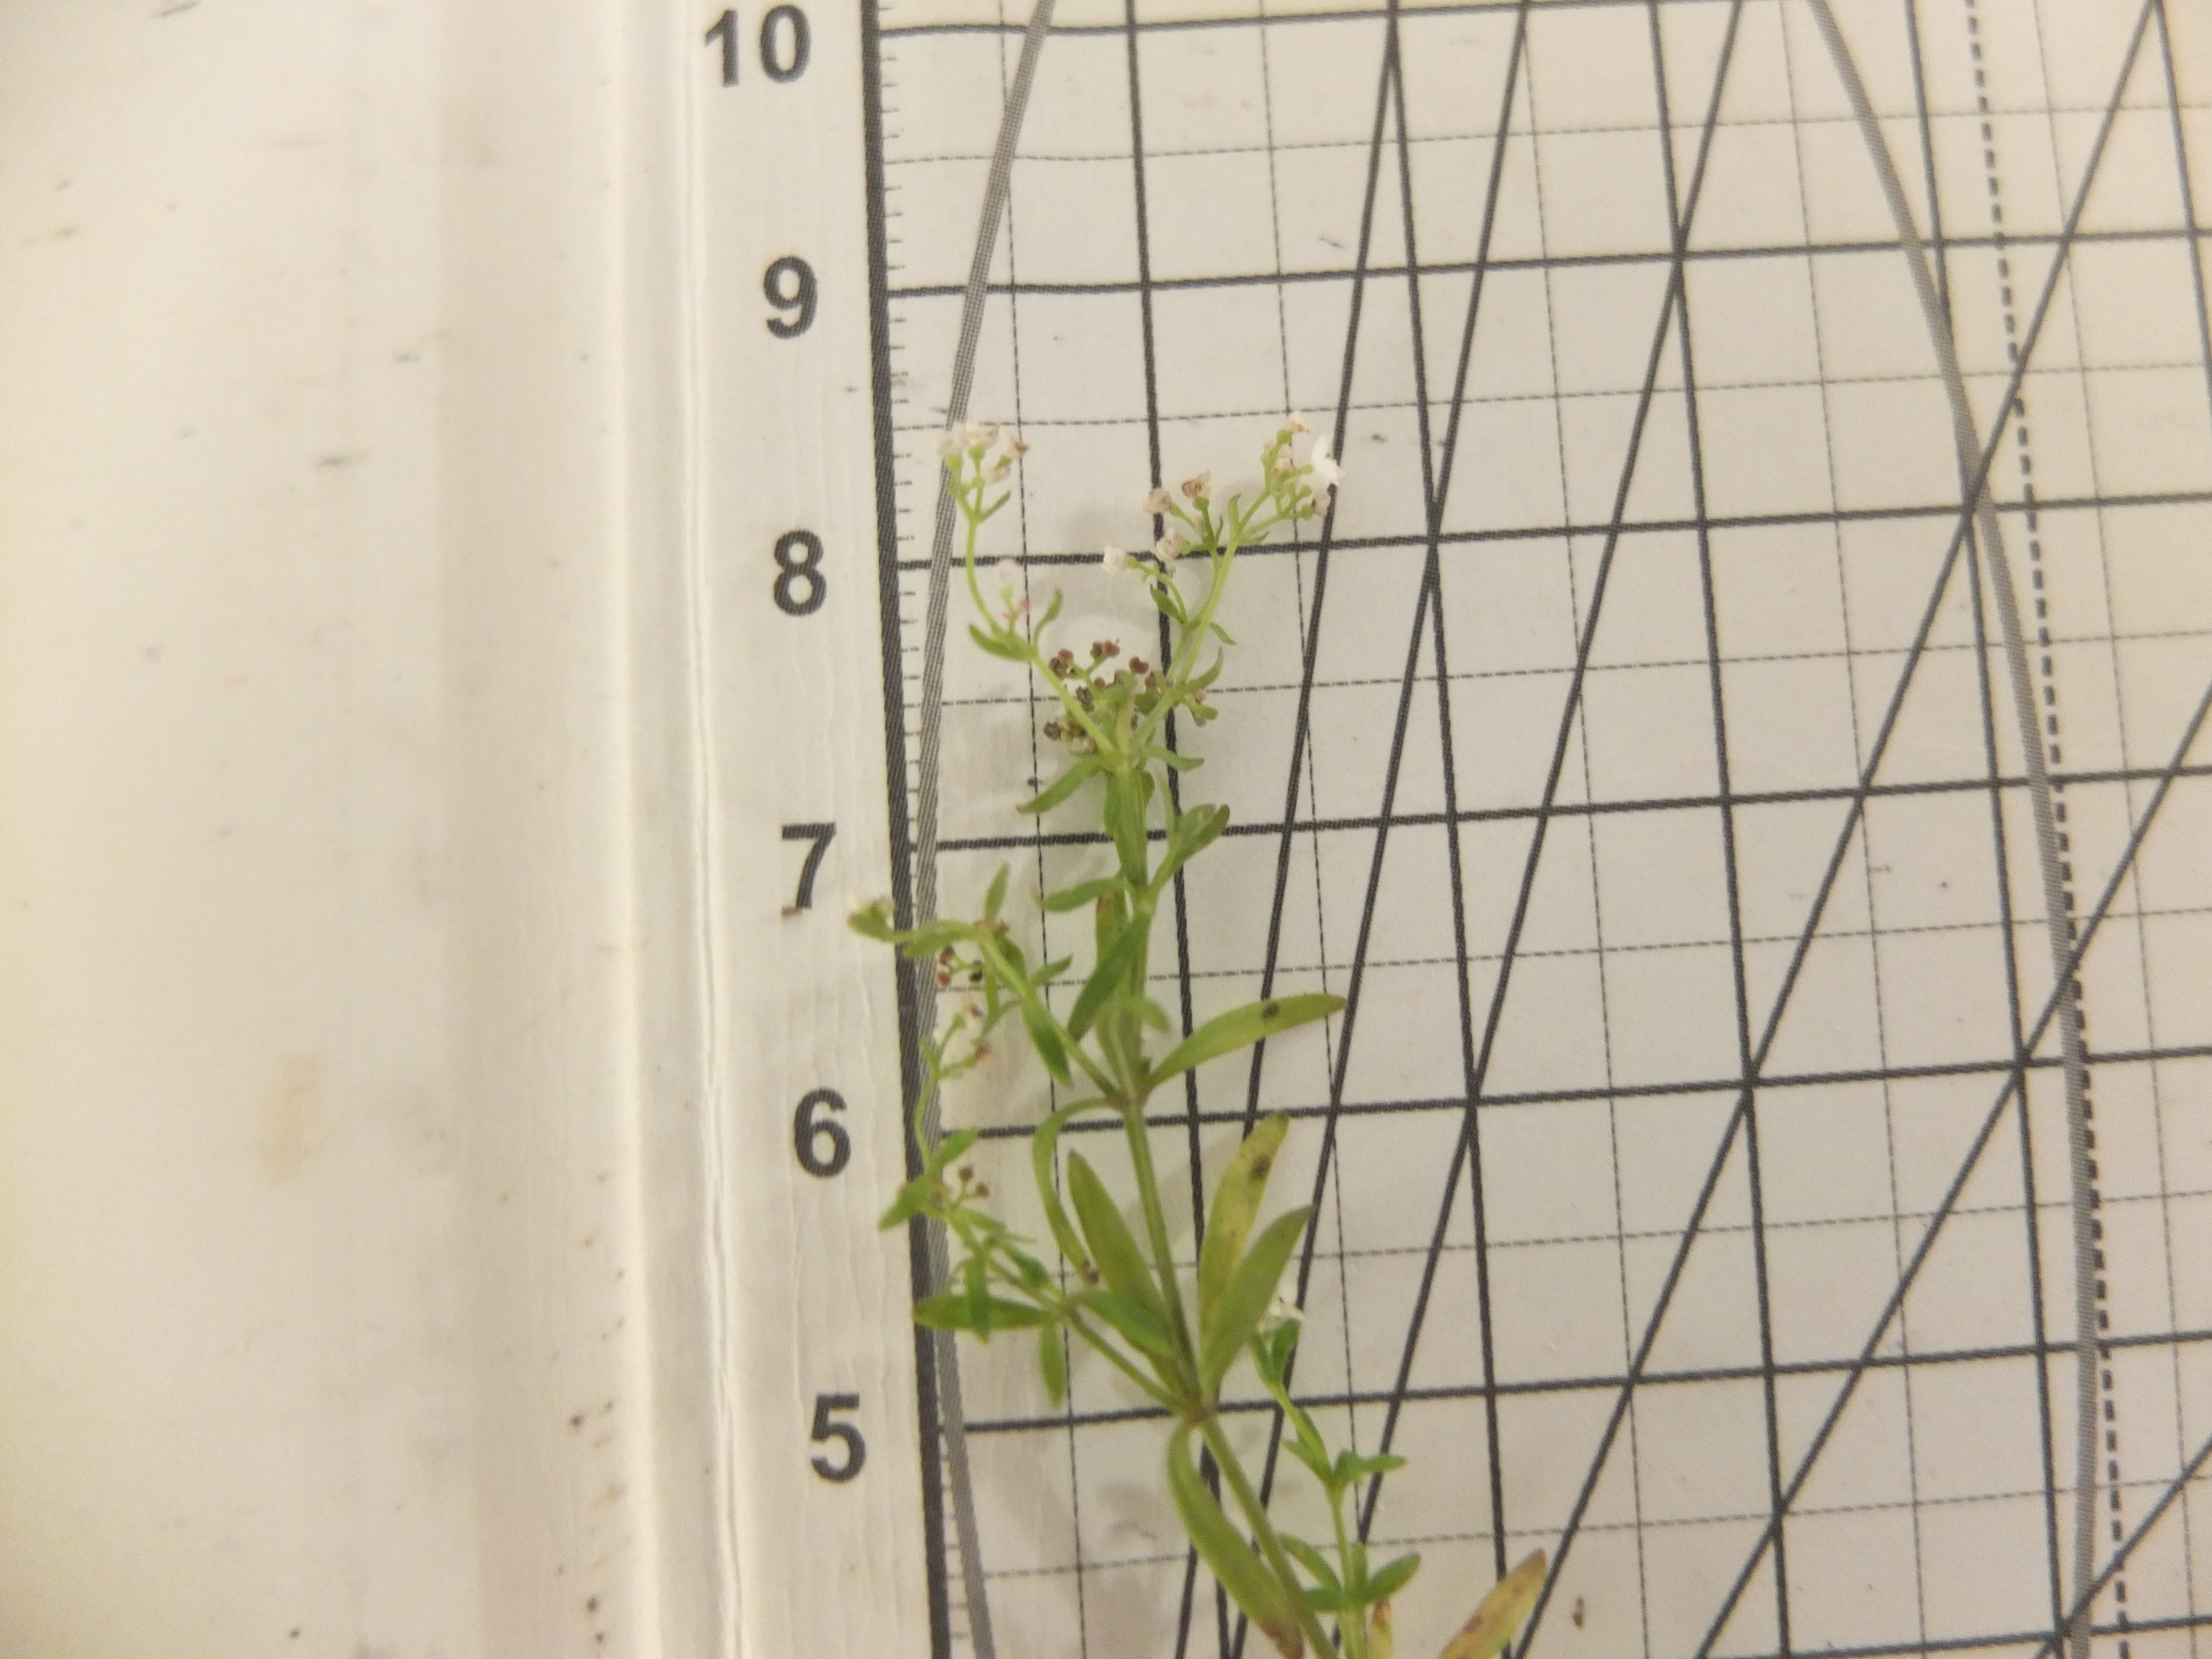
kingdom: Plantae
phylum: Tracheophyta
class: Magnoliopsida
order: Gentianales
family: Rubiaceae
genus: Galium
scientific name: Galium palustre
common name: Kær-snerre
